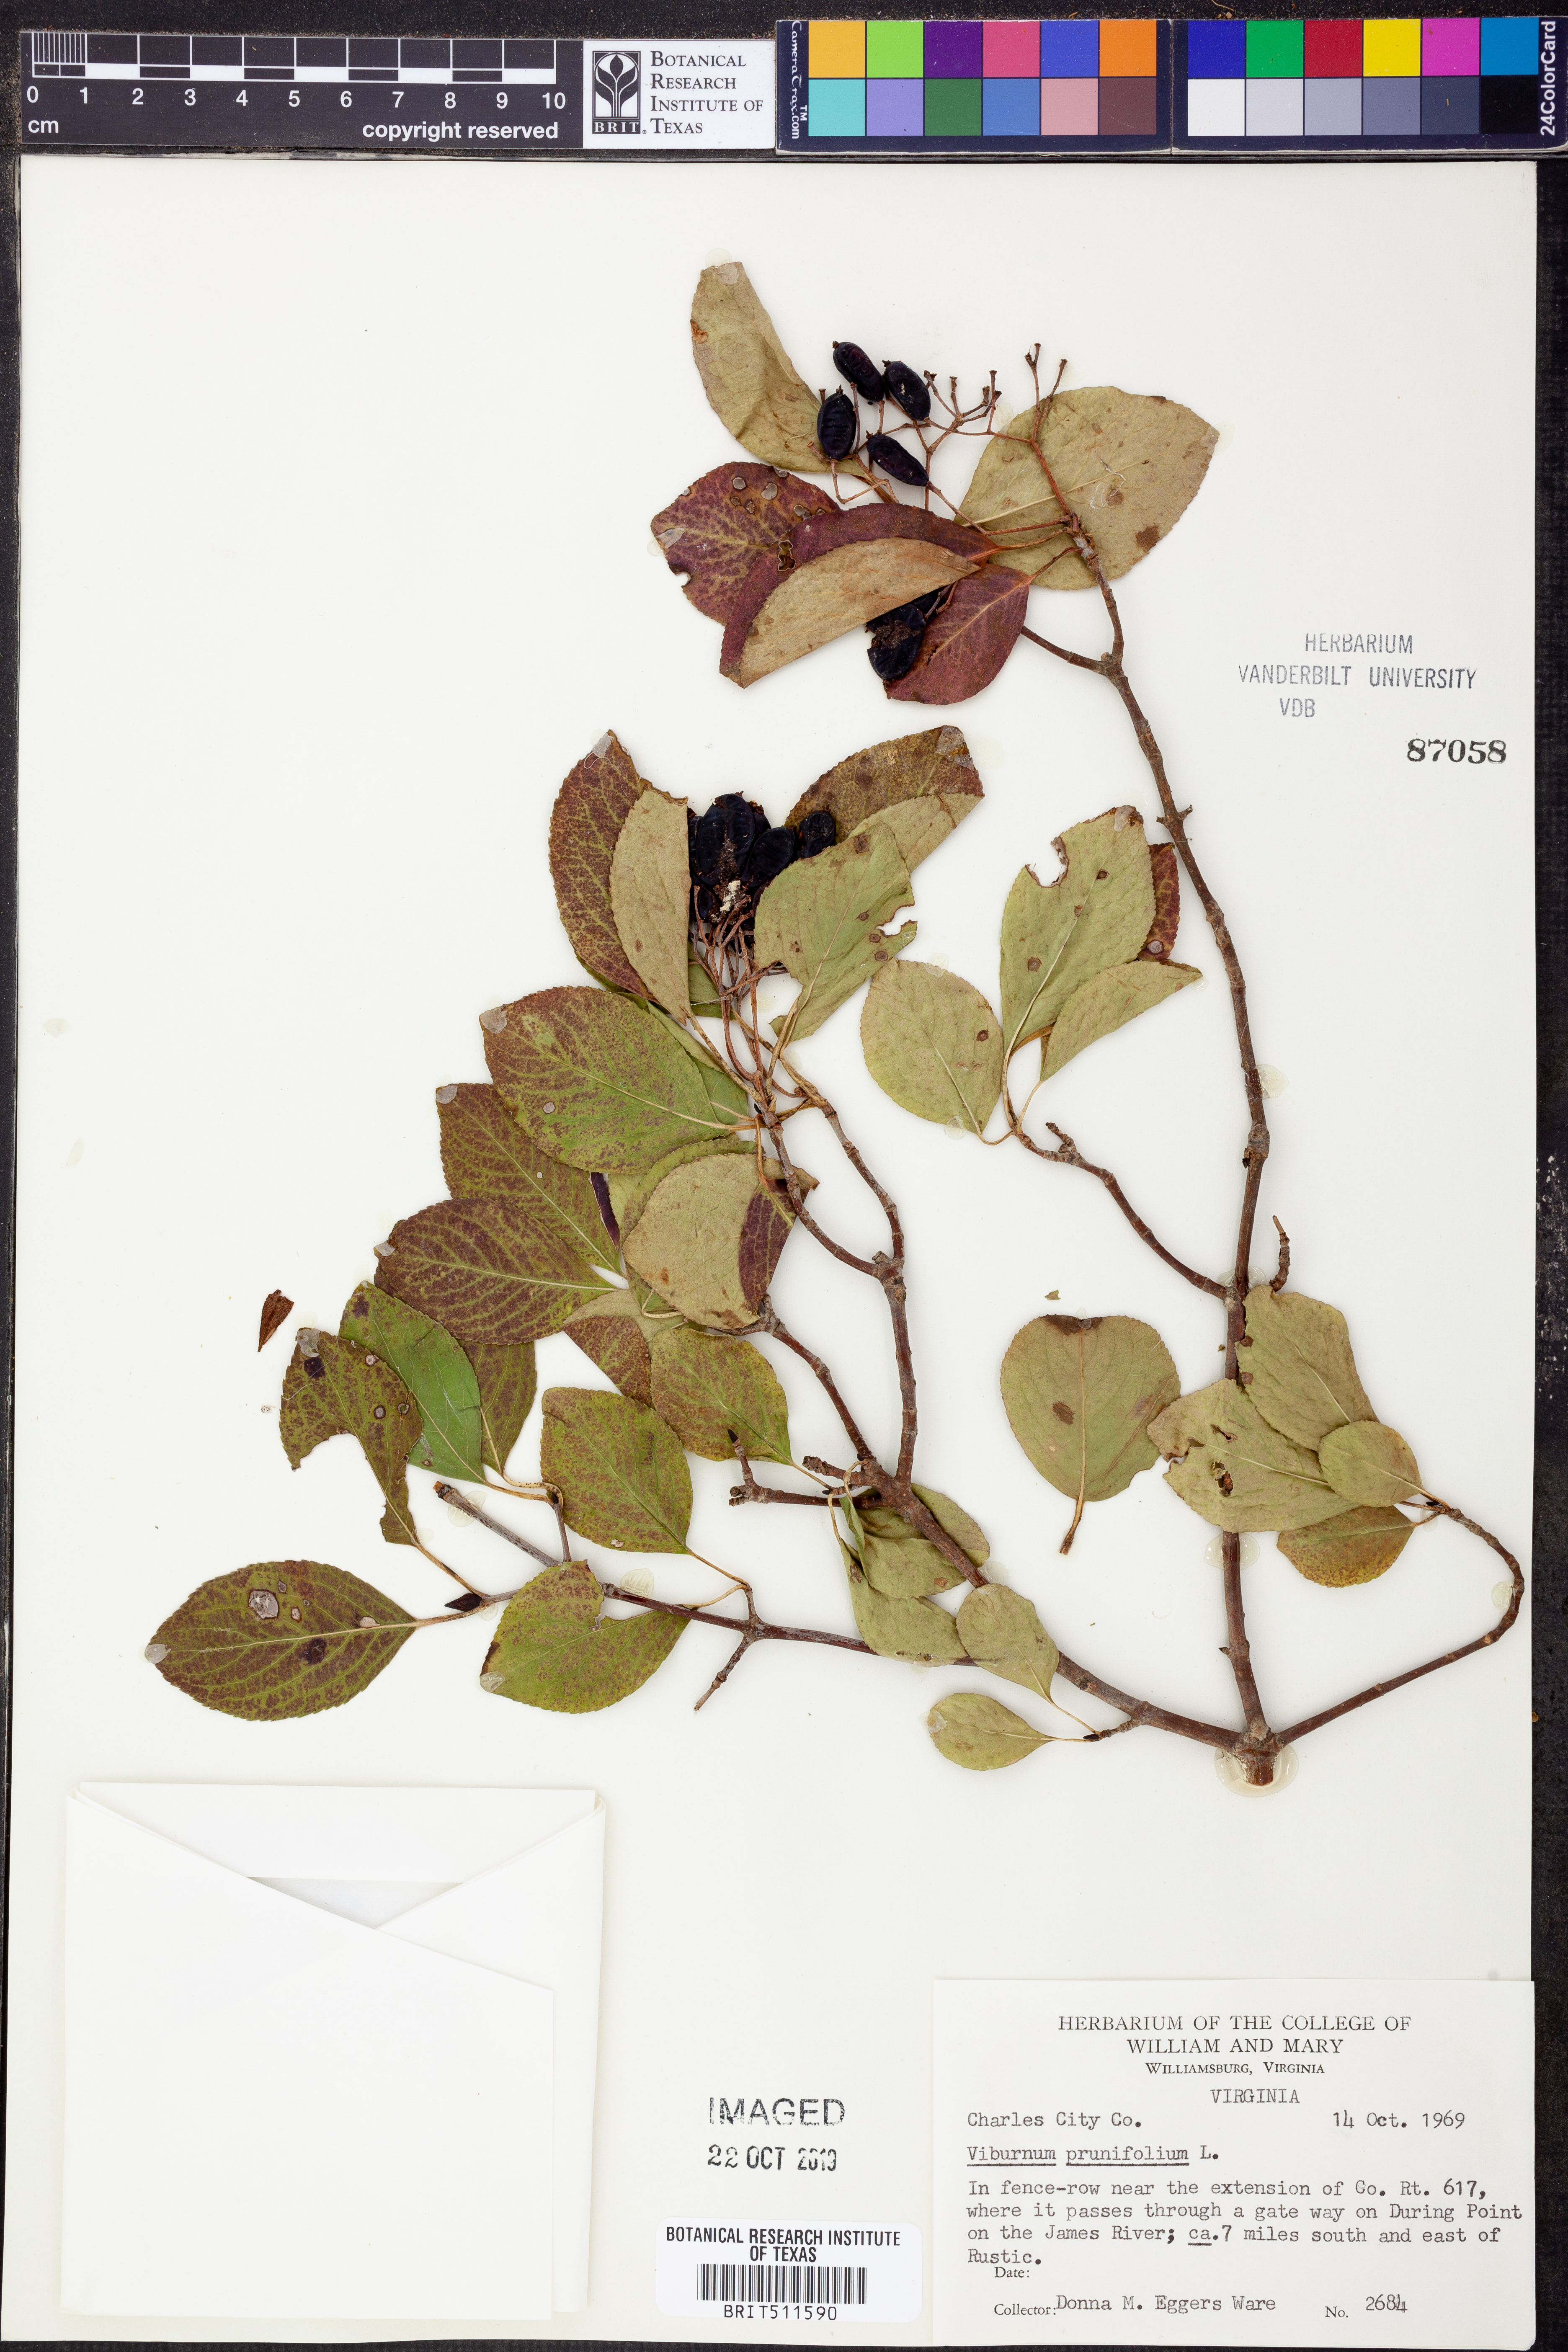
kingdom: Plantae
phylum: Tracheophyta
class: Magnoliopsida
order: Dipsacales
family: Viburnaceae
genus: Viburnum
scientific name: Viburnum prunifolium
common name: Black haw
